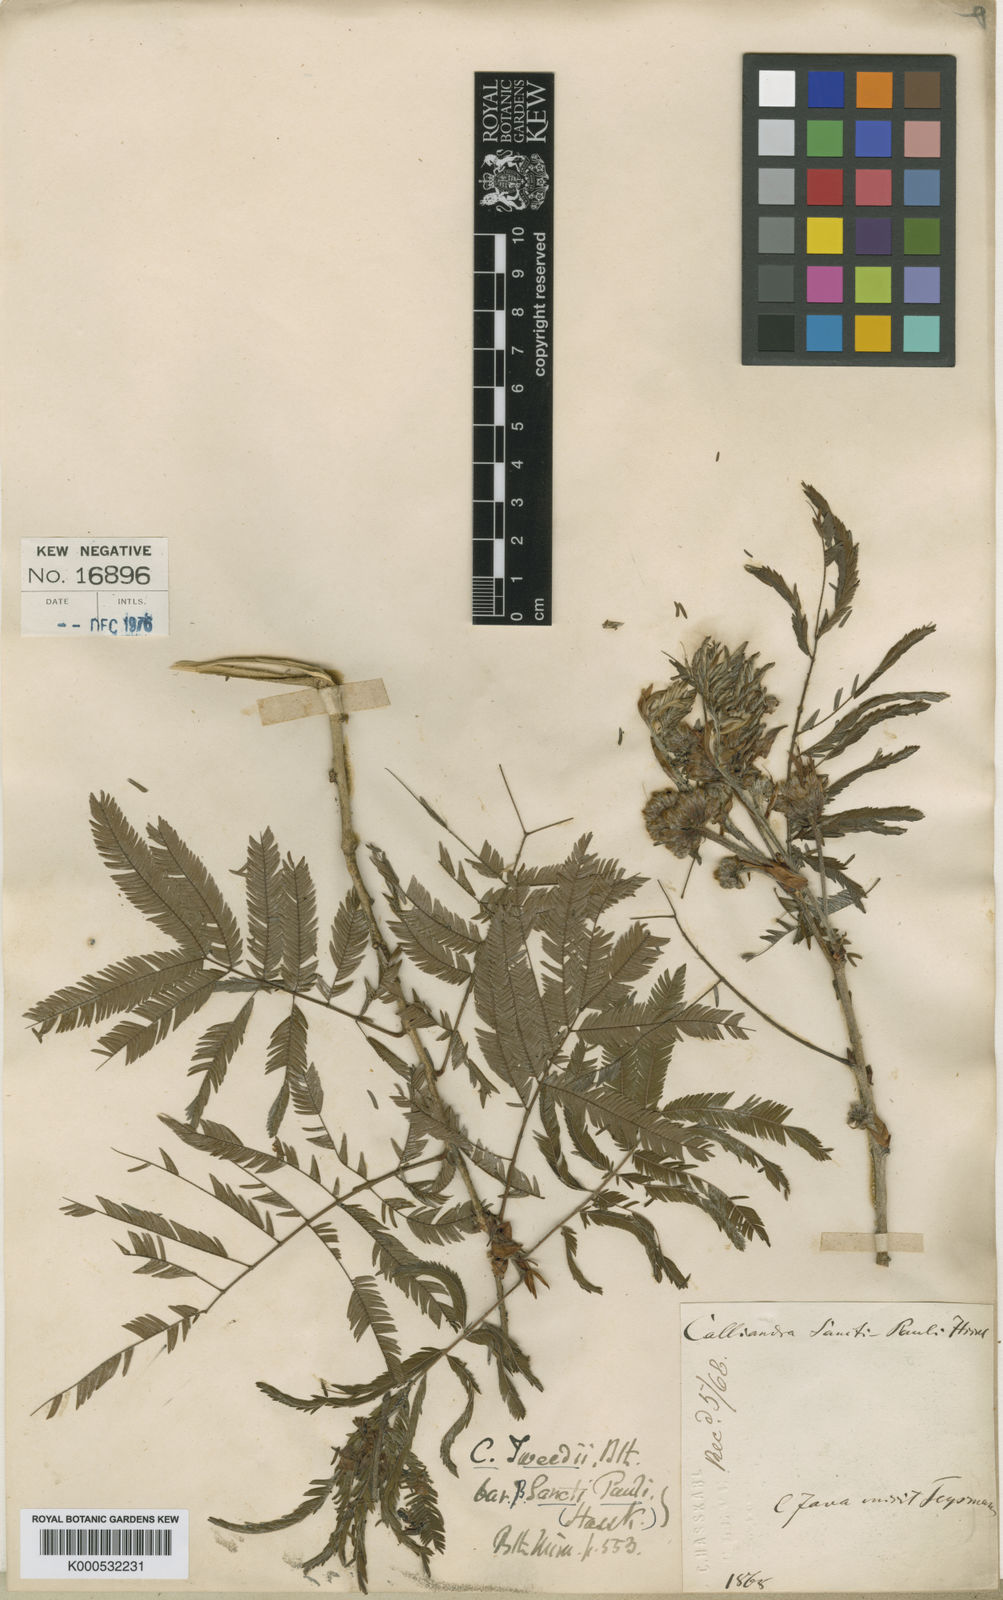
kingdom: Plantae
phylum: Tracheophyta
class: Magnoliopsida
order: Fabales
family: Fabaceae
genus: Calliandra
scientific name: Calliandra foliolosa
